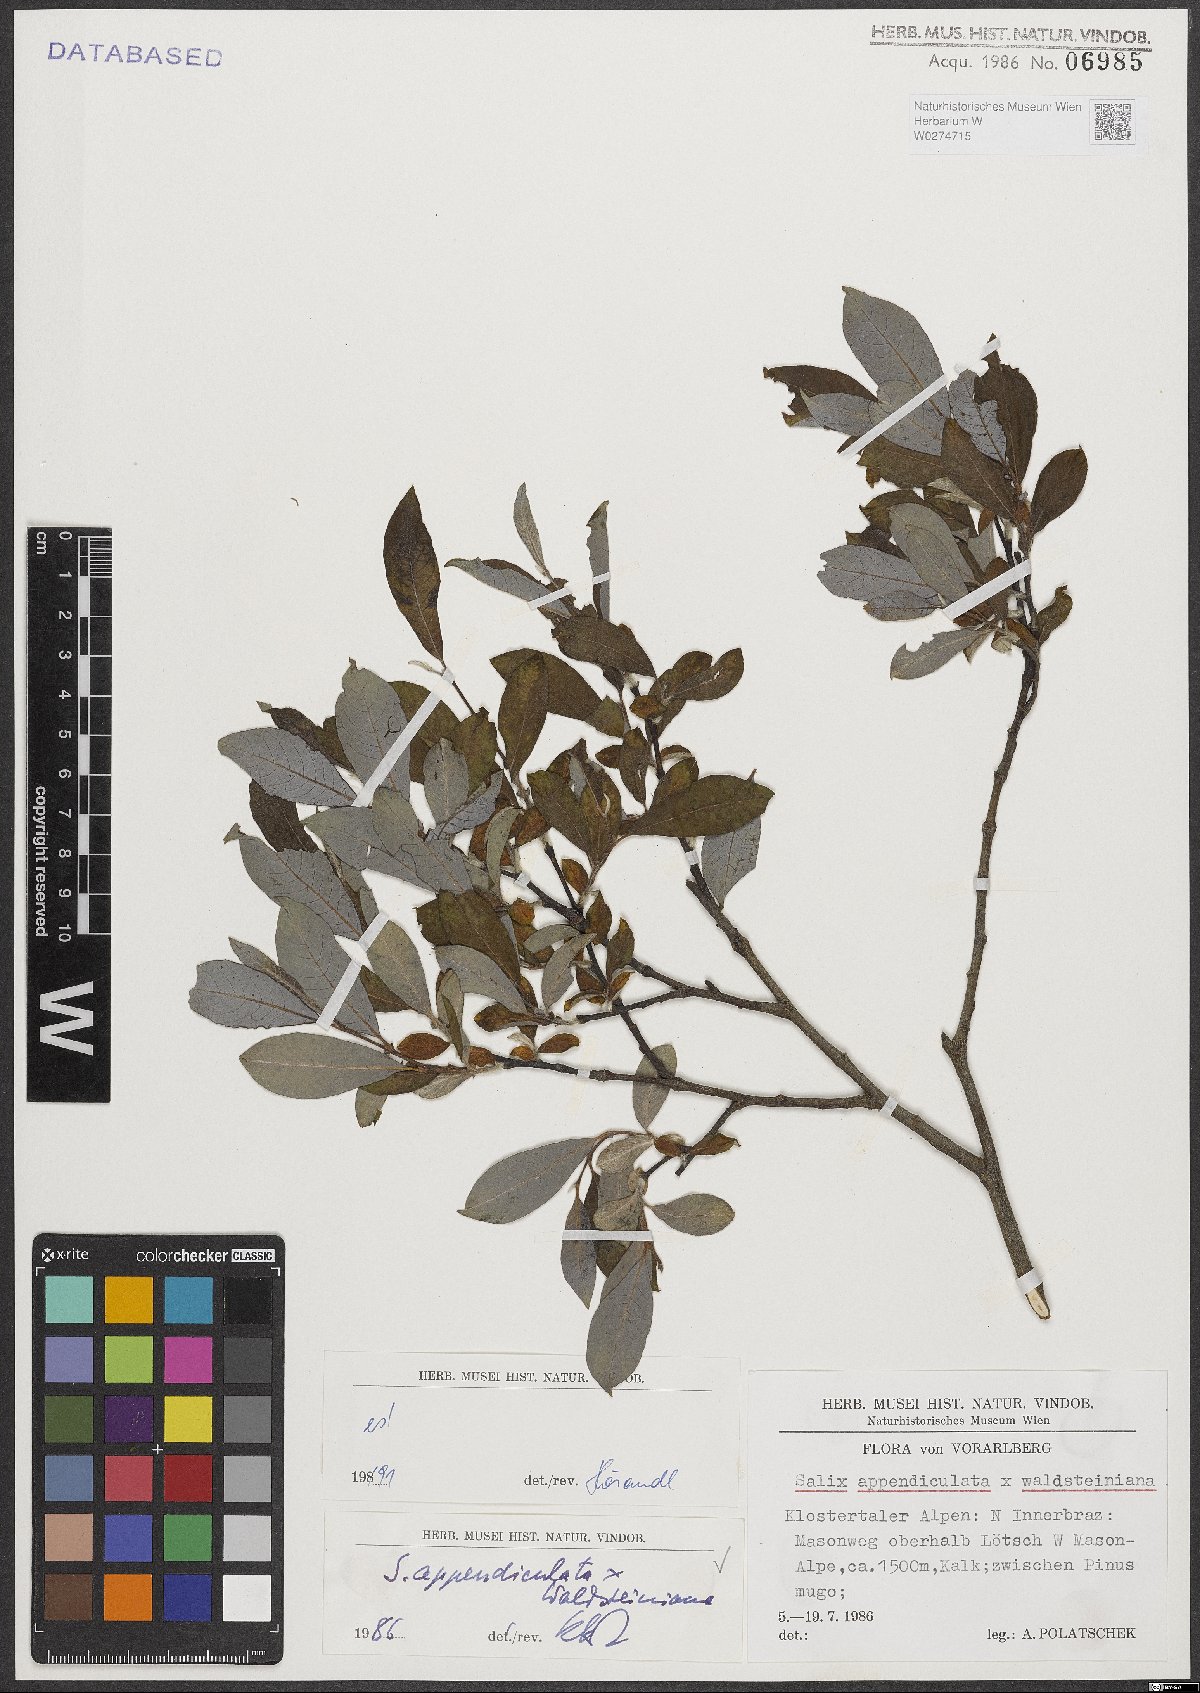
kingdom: Plantae
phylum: Tracheophyta
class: Magnoliopsida
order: Malpighiales
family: Salicaceae
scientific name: Salicaceae
